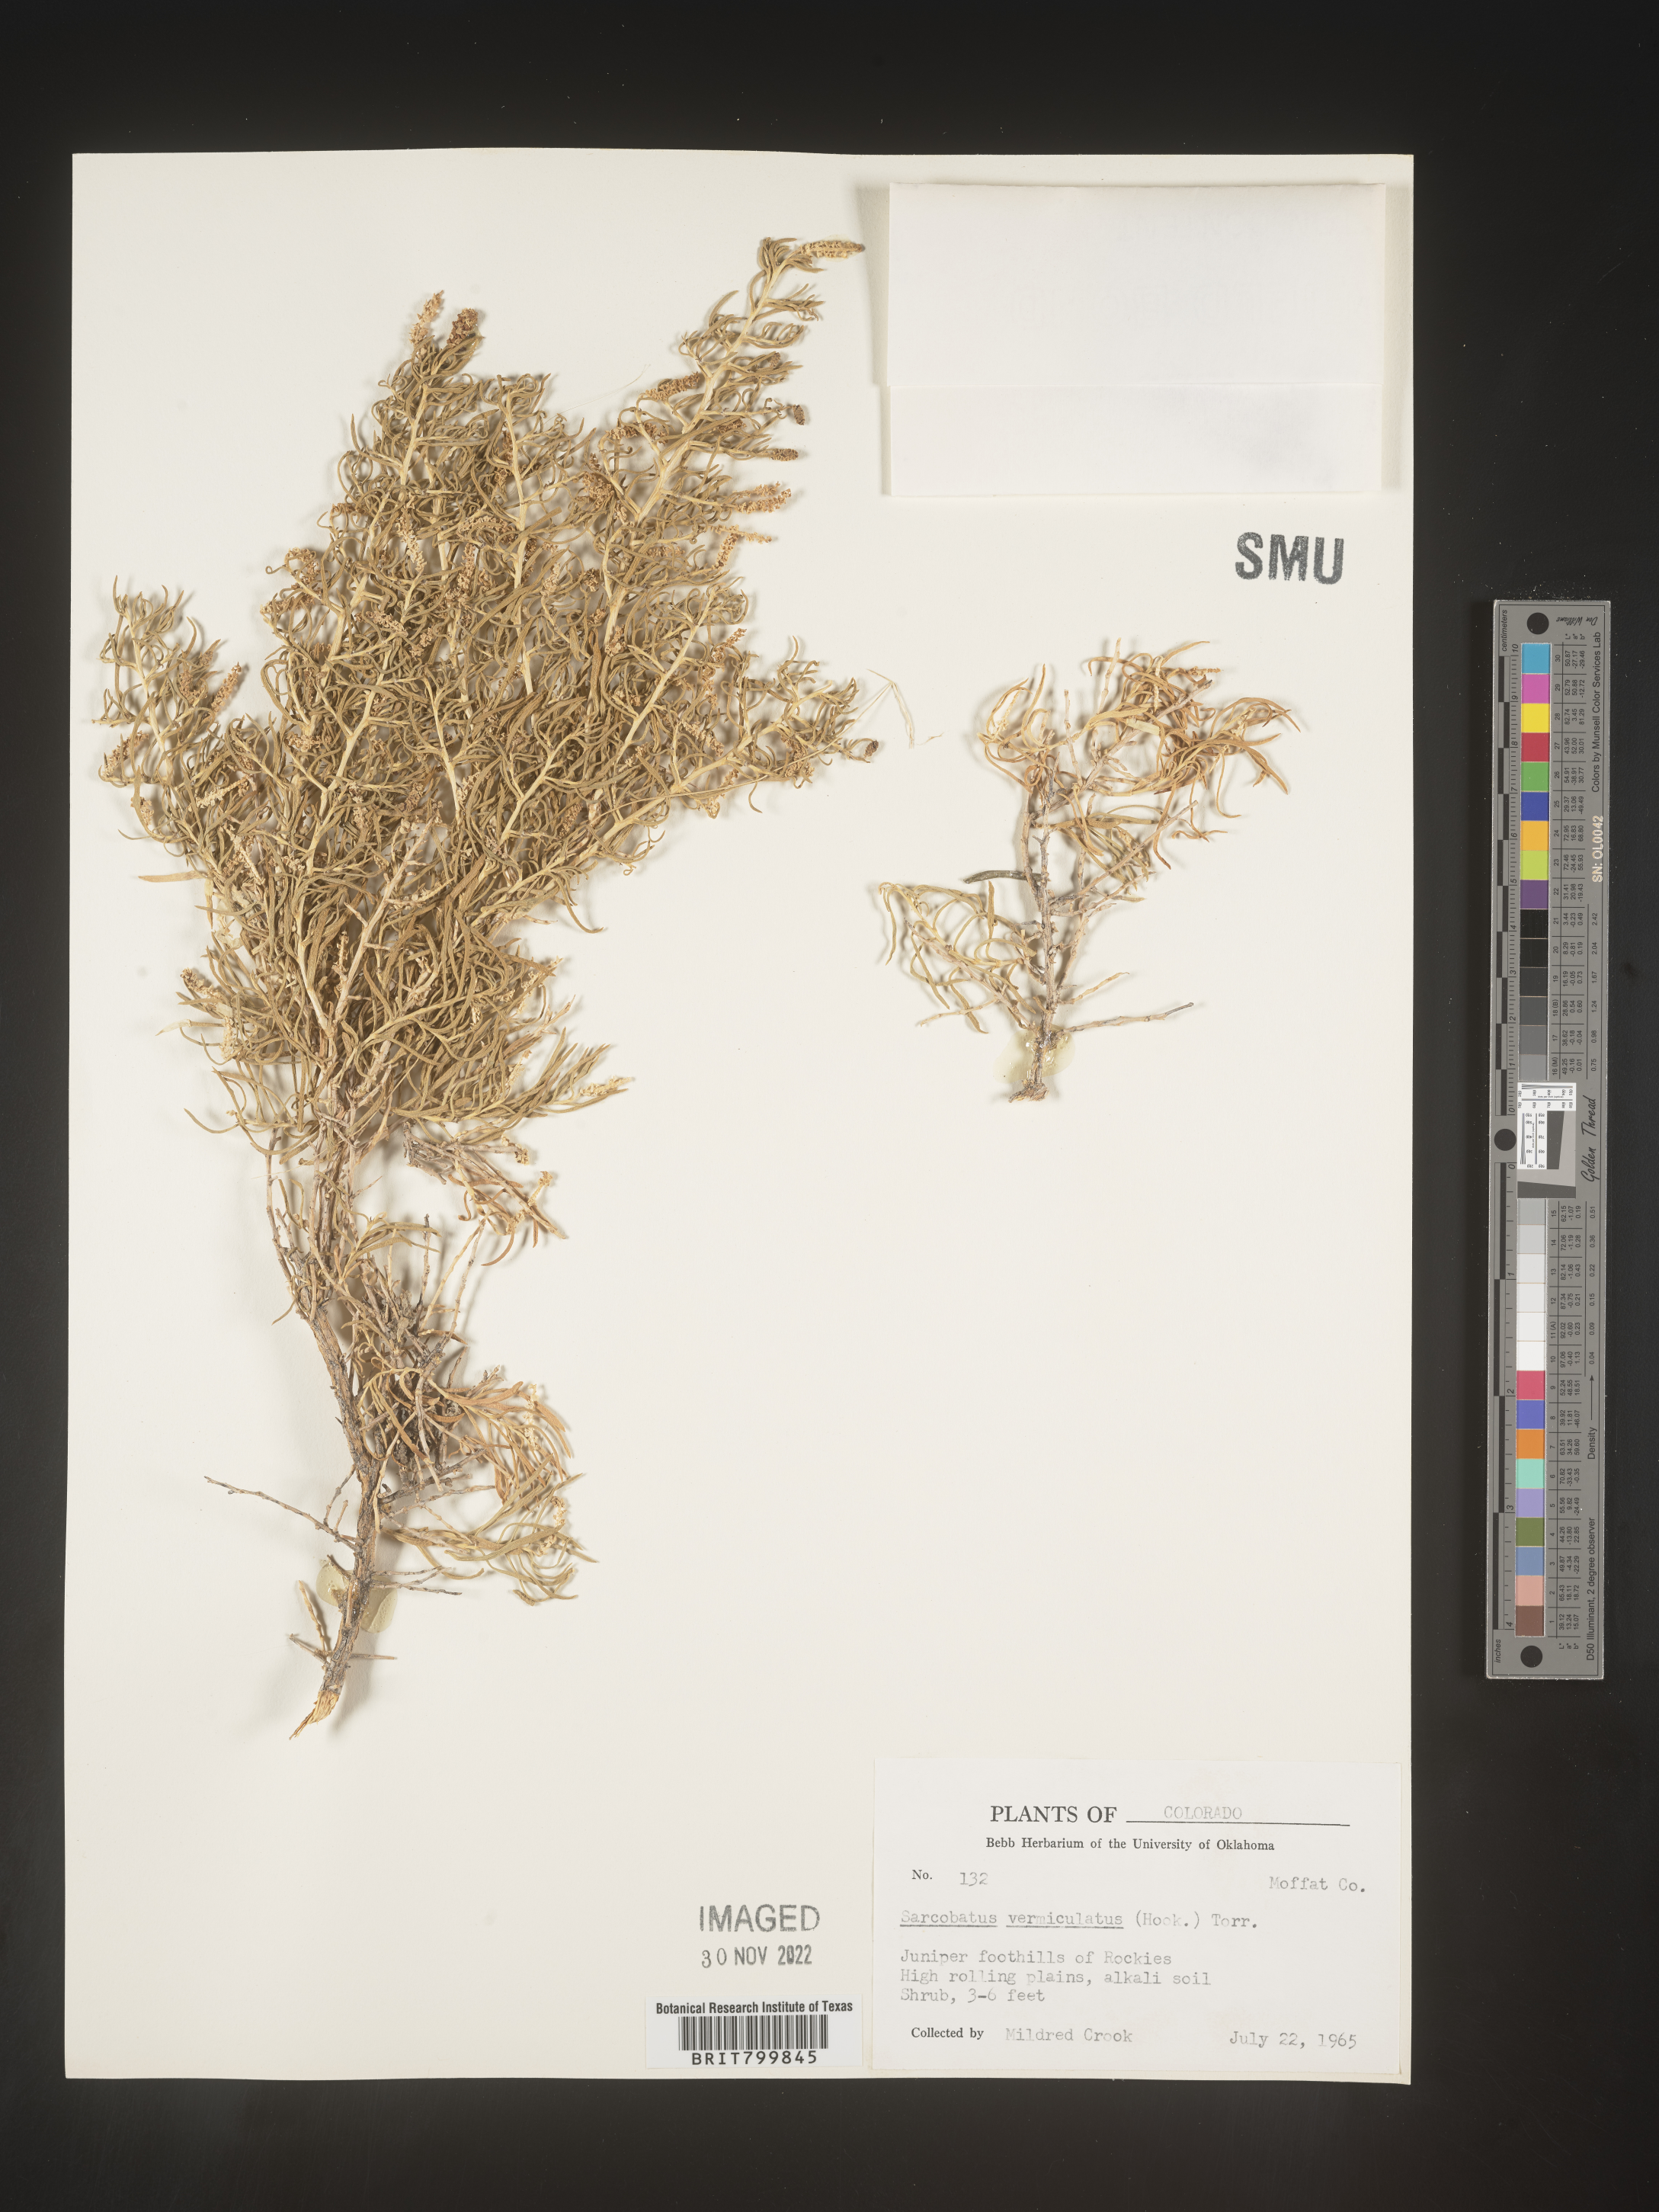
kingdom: Plantae
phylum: Tracheophyta
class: Magnoliopsida
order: Caryophyllales
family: Sarcobataceae
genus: Sarcobatus
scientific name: Sarcobatus vermiculatus
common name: Greasewood
